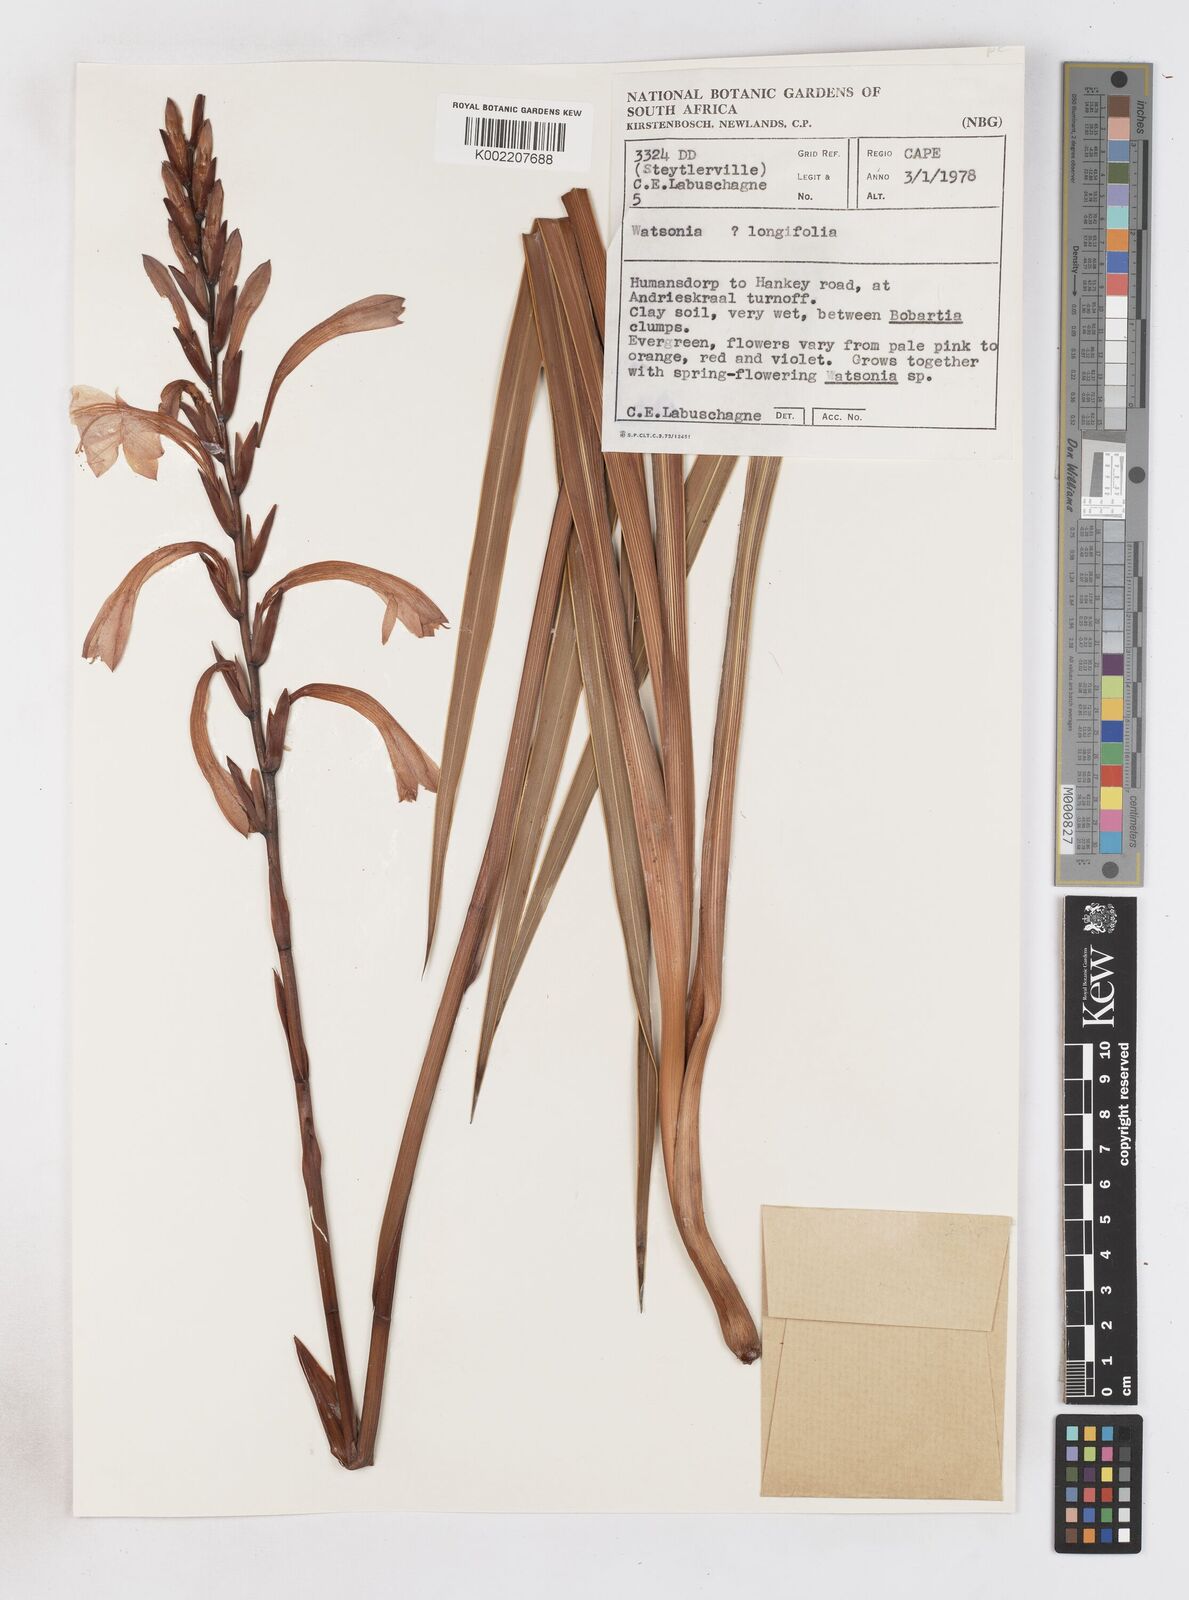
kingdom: Plantae
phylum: Tracheophyta
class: Liliopsida
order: Asparagales
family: Iridaceae
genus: Watsonia
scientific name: Watsonia longifolia
